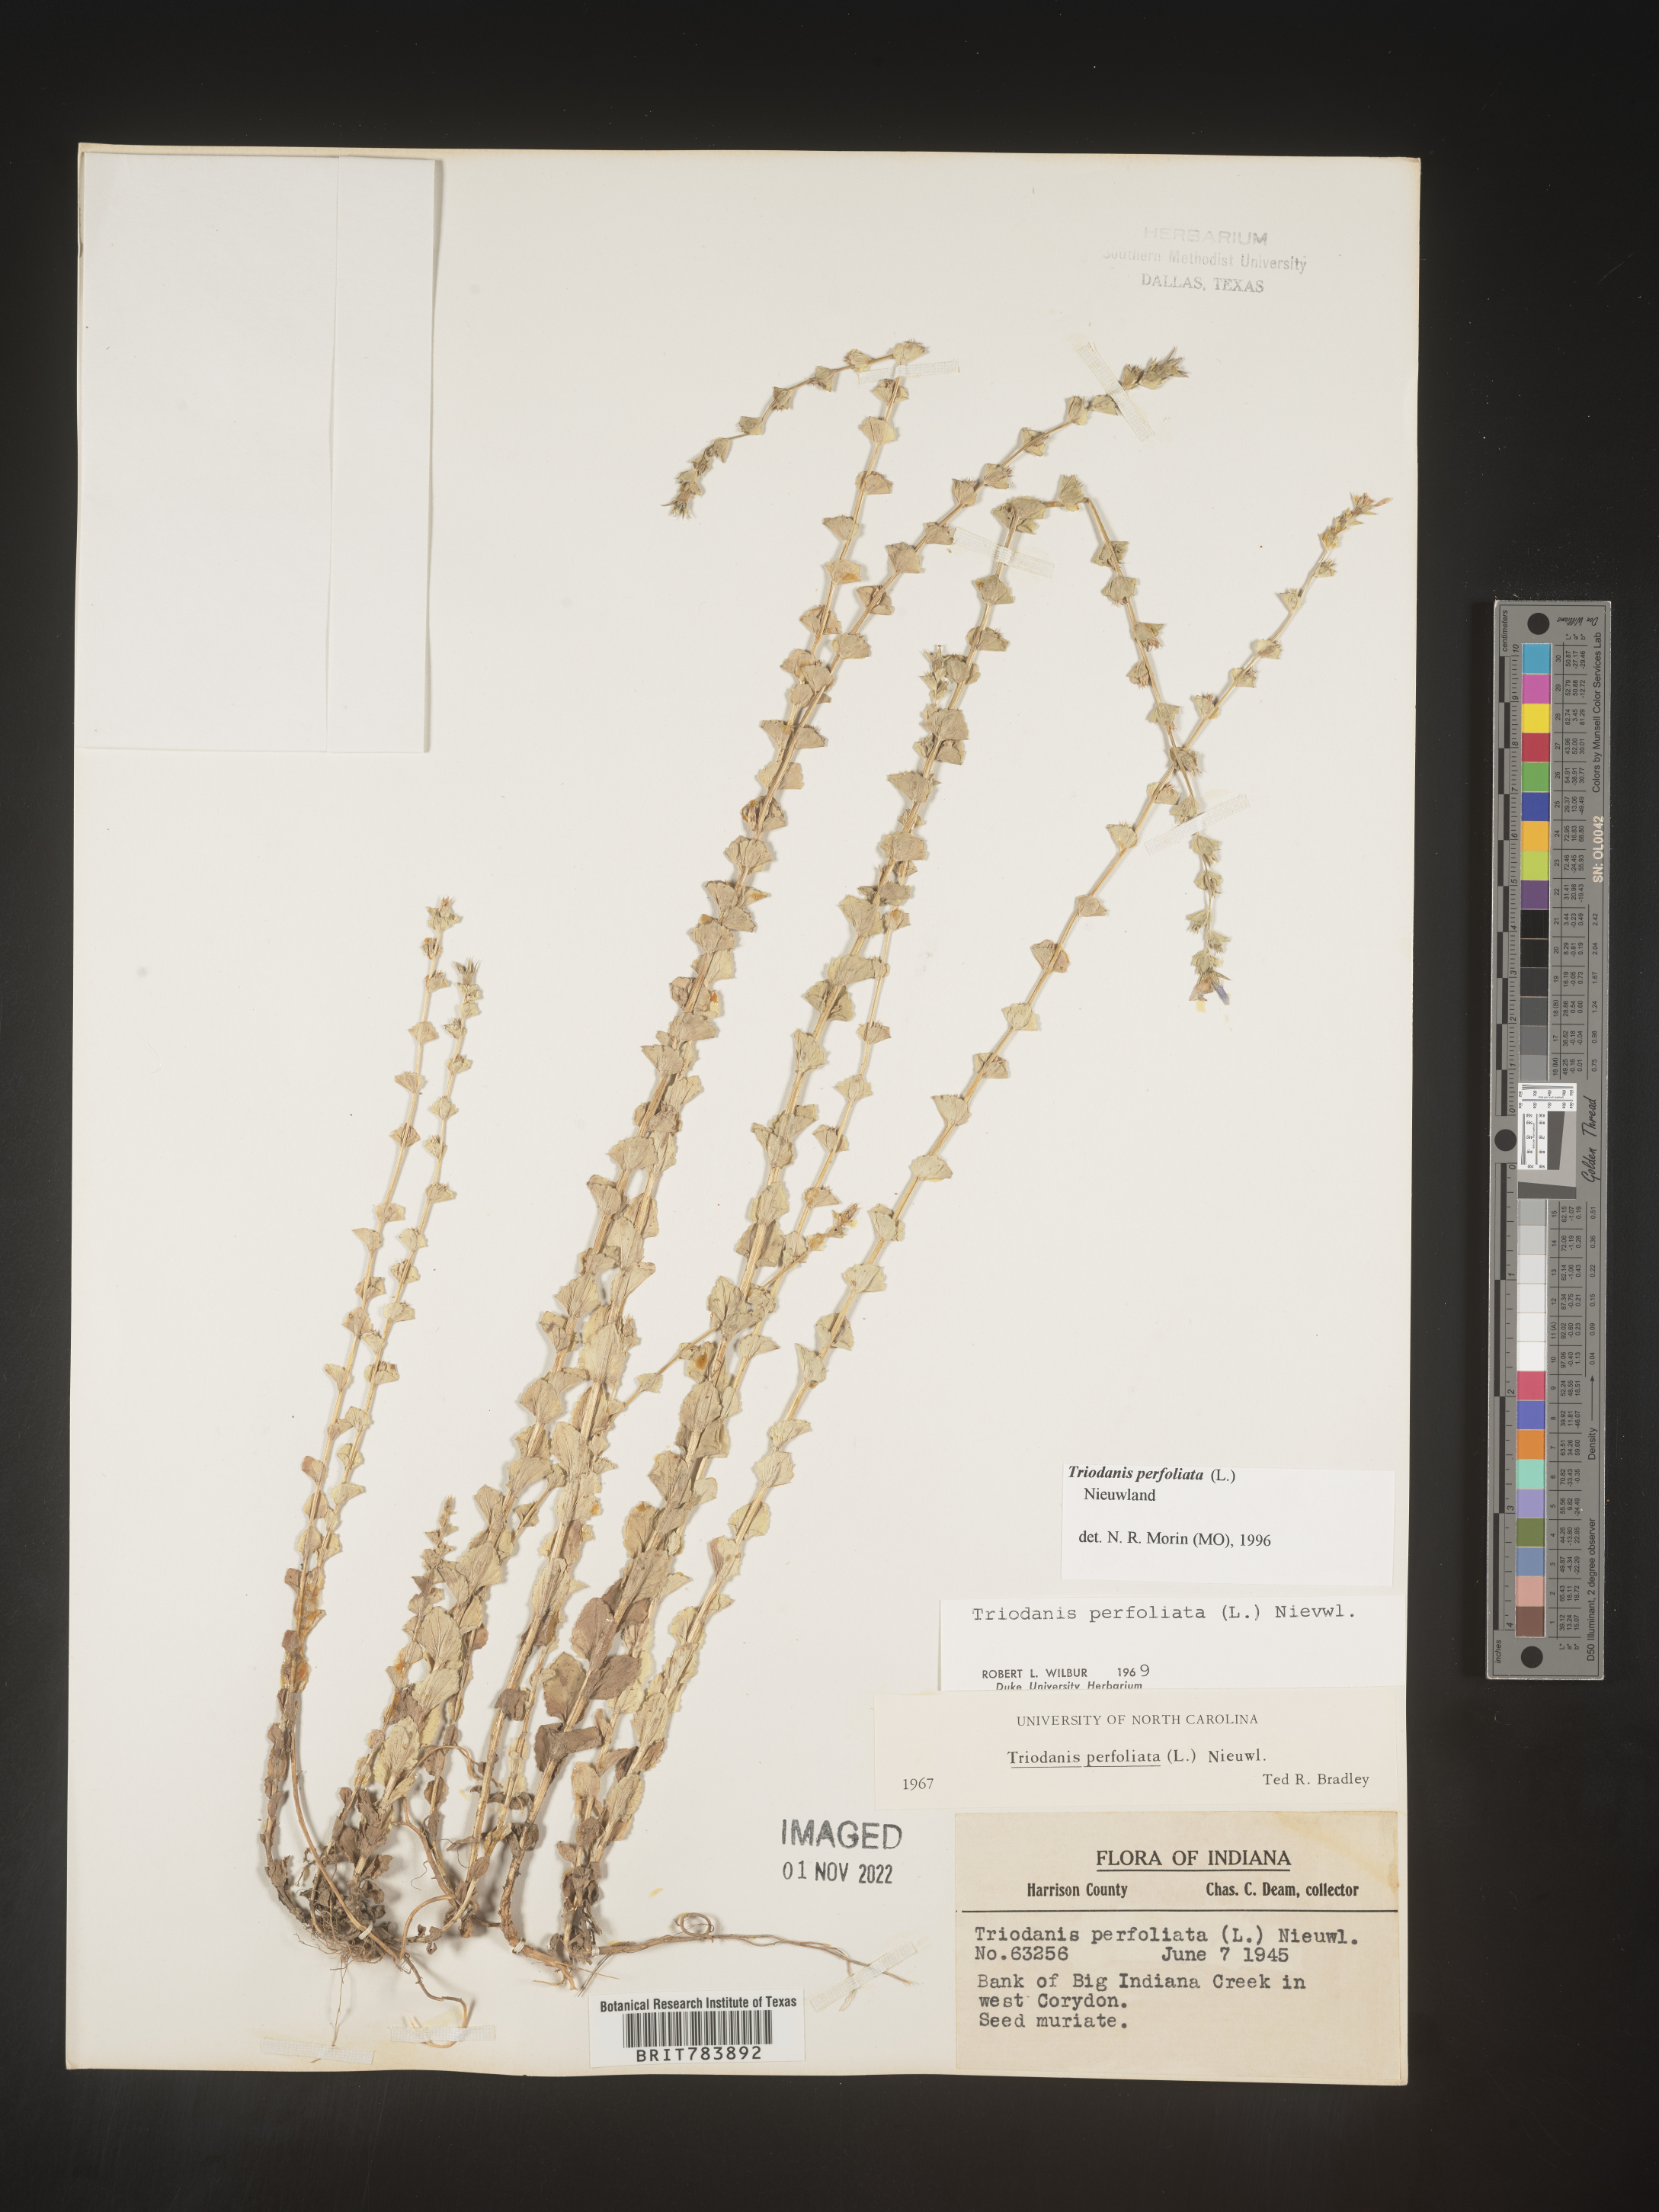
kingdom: Plantae
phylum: Tracheophyta
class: Magnoliopsida
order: Asterales
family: Campanulaceae
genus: Triodanis
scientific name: Triodanis perfoliata
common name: Clasping venus' looking-glass
